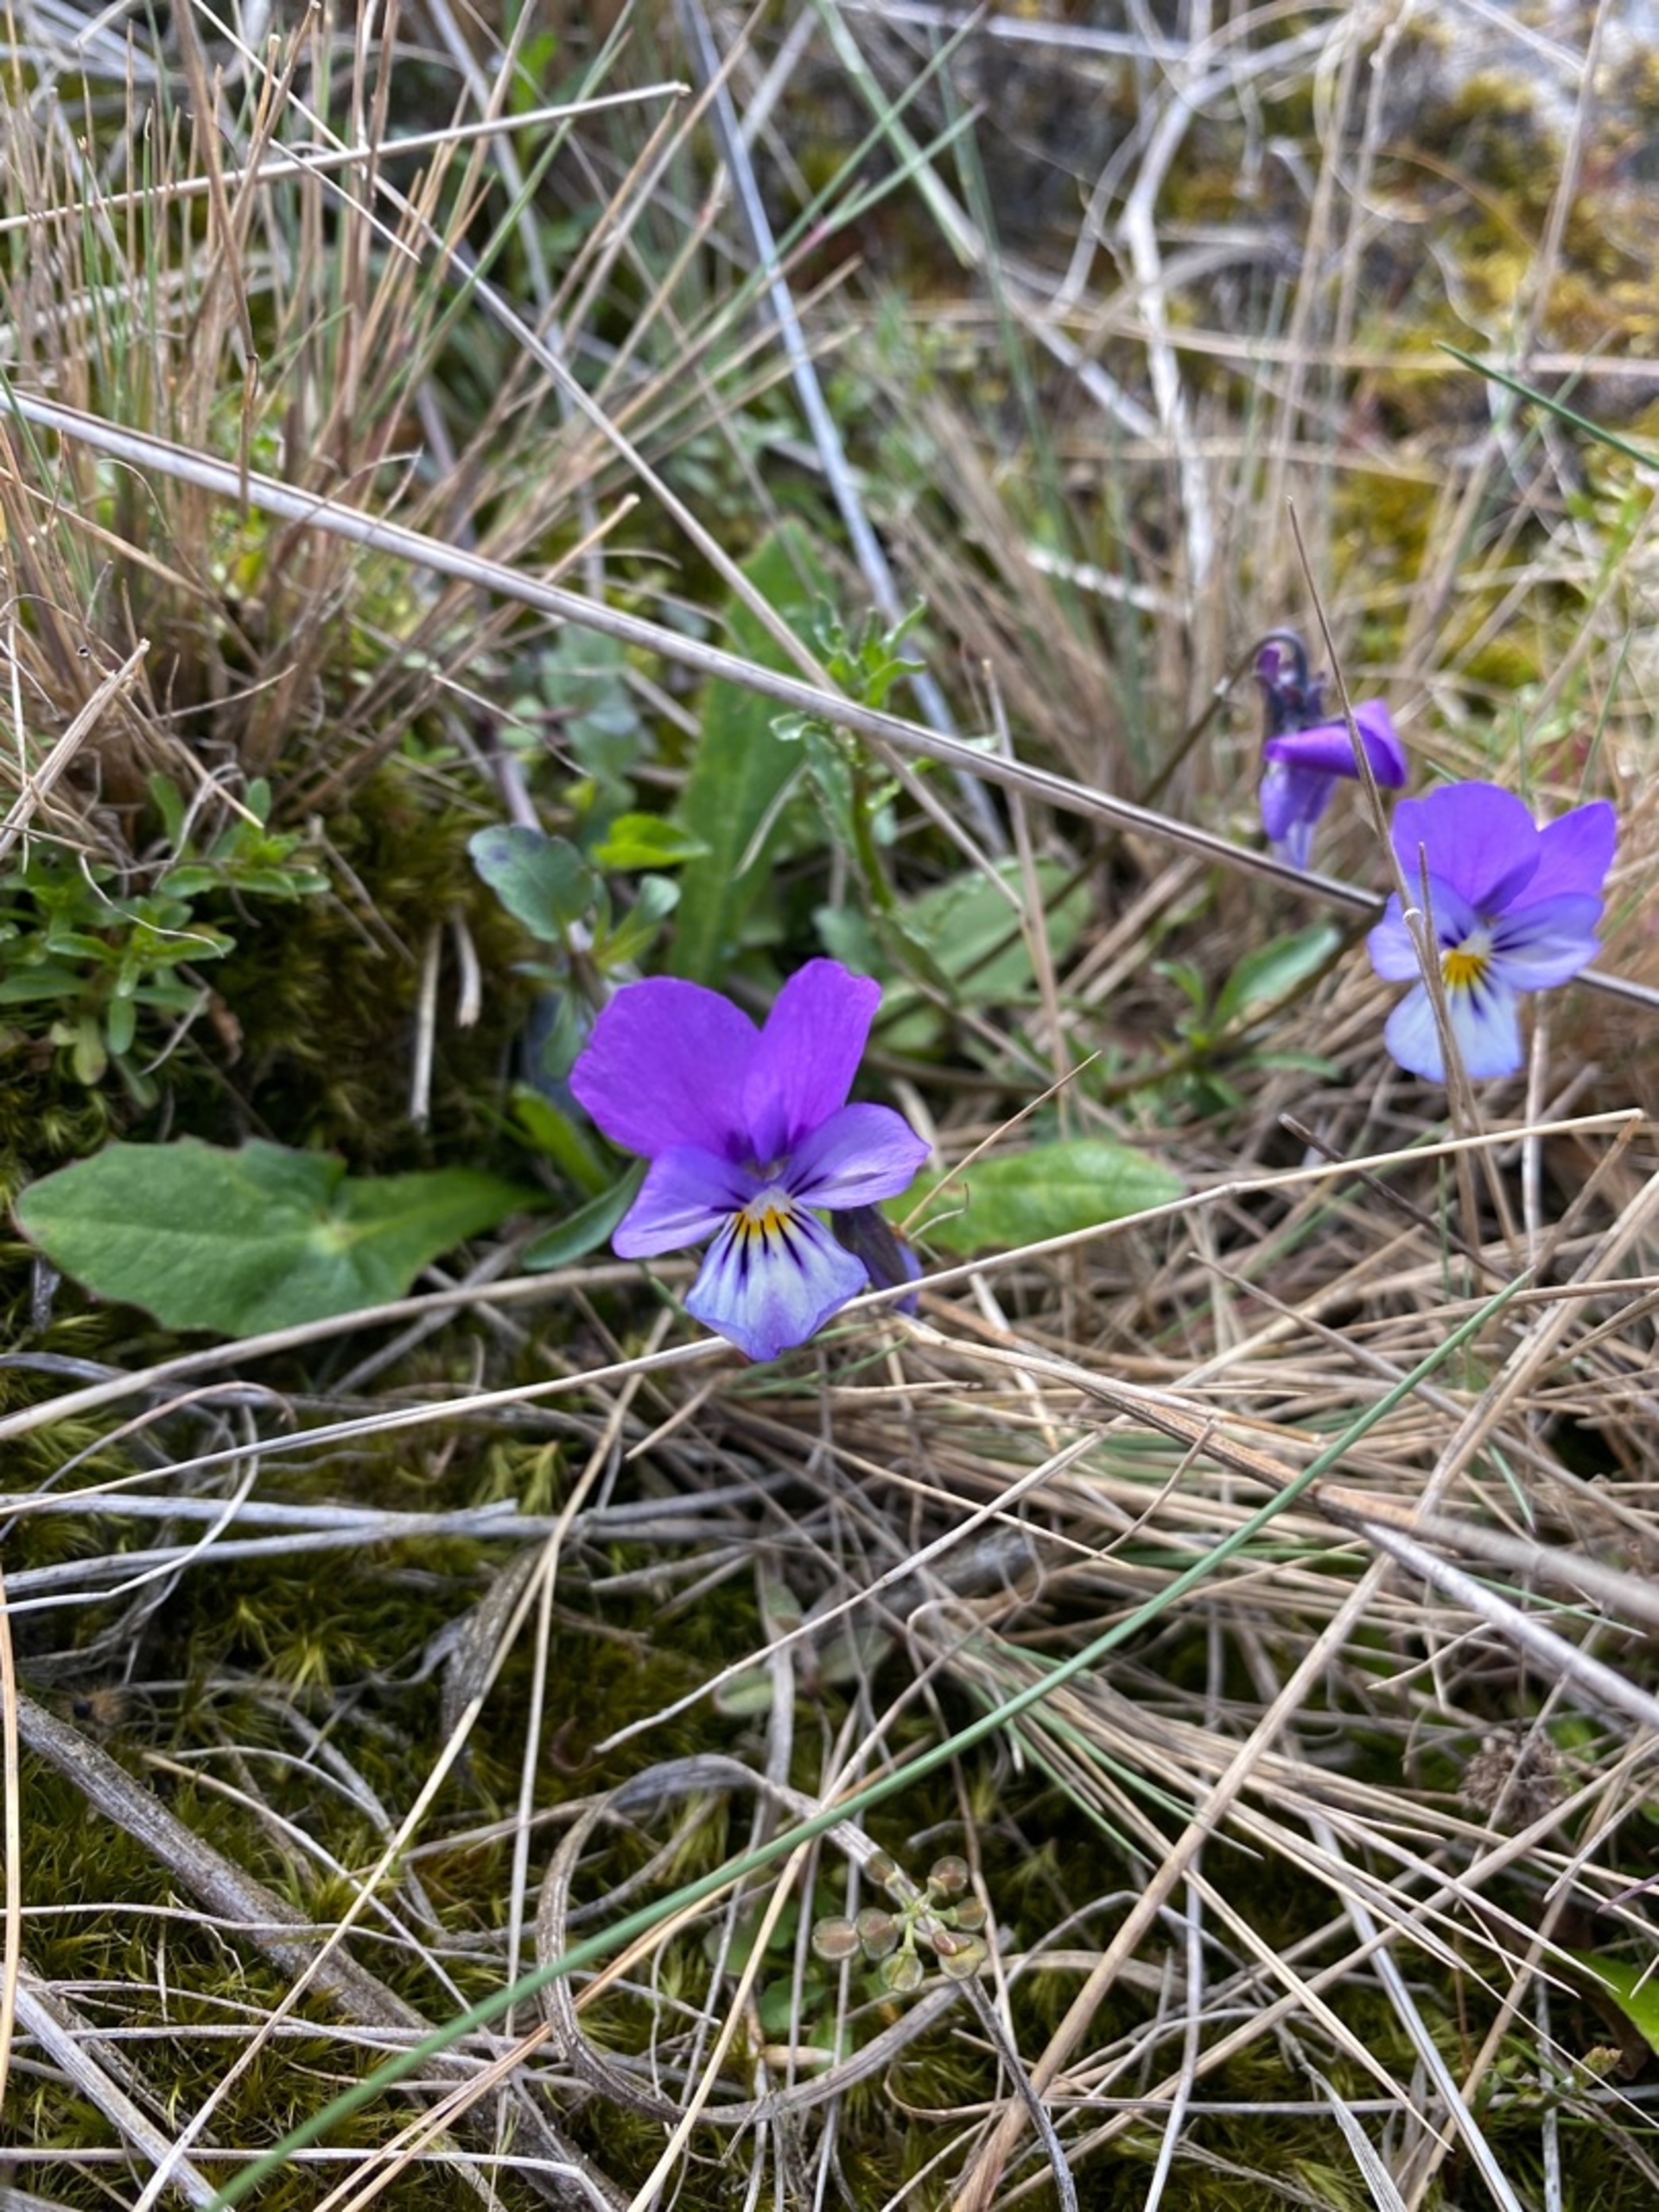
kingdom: Plantae
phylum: Tracheophyta
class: Magnoliopsida
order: Malpighiales
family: Violaceae
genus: Viola
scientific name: Viola tricolor
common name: Stedmoderblomst
